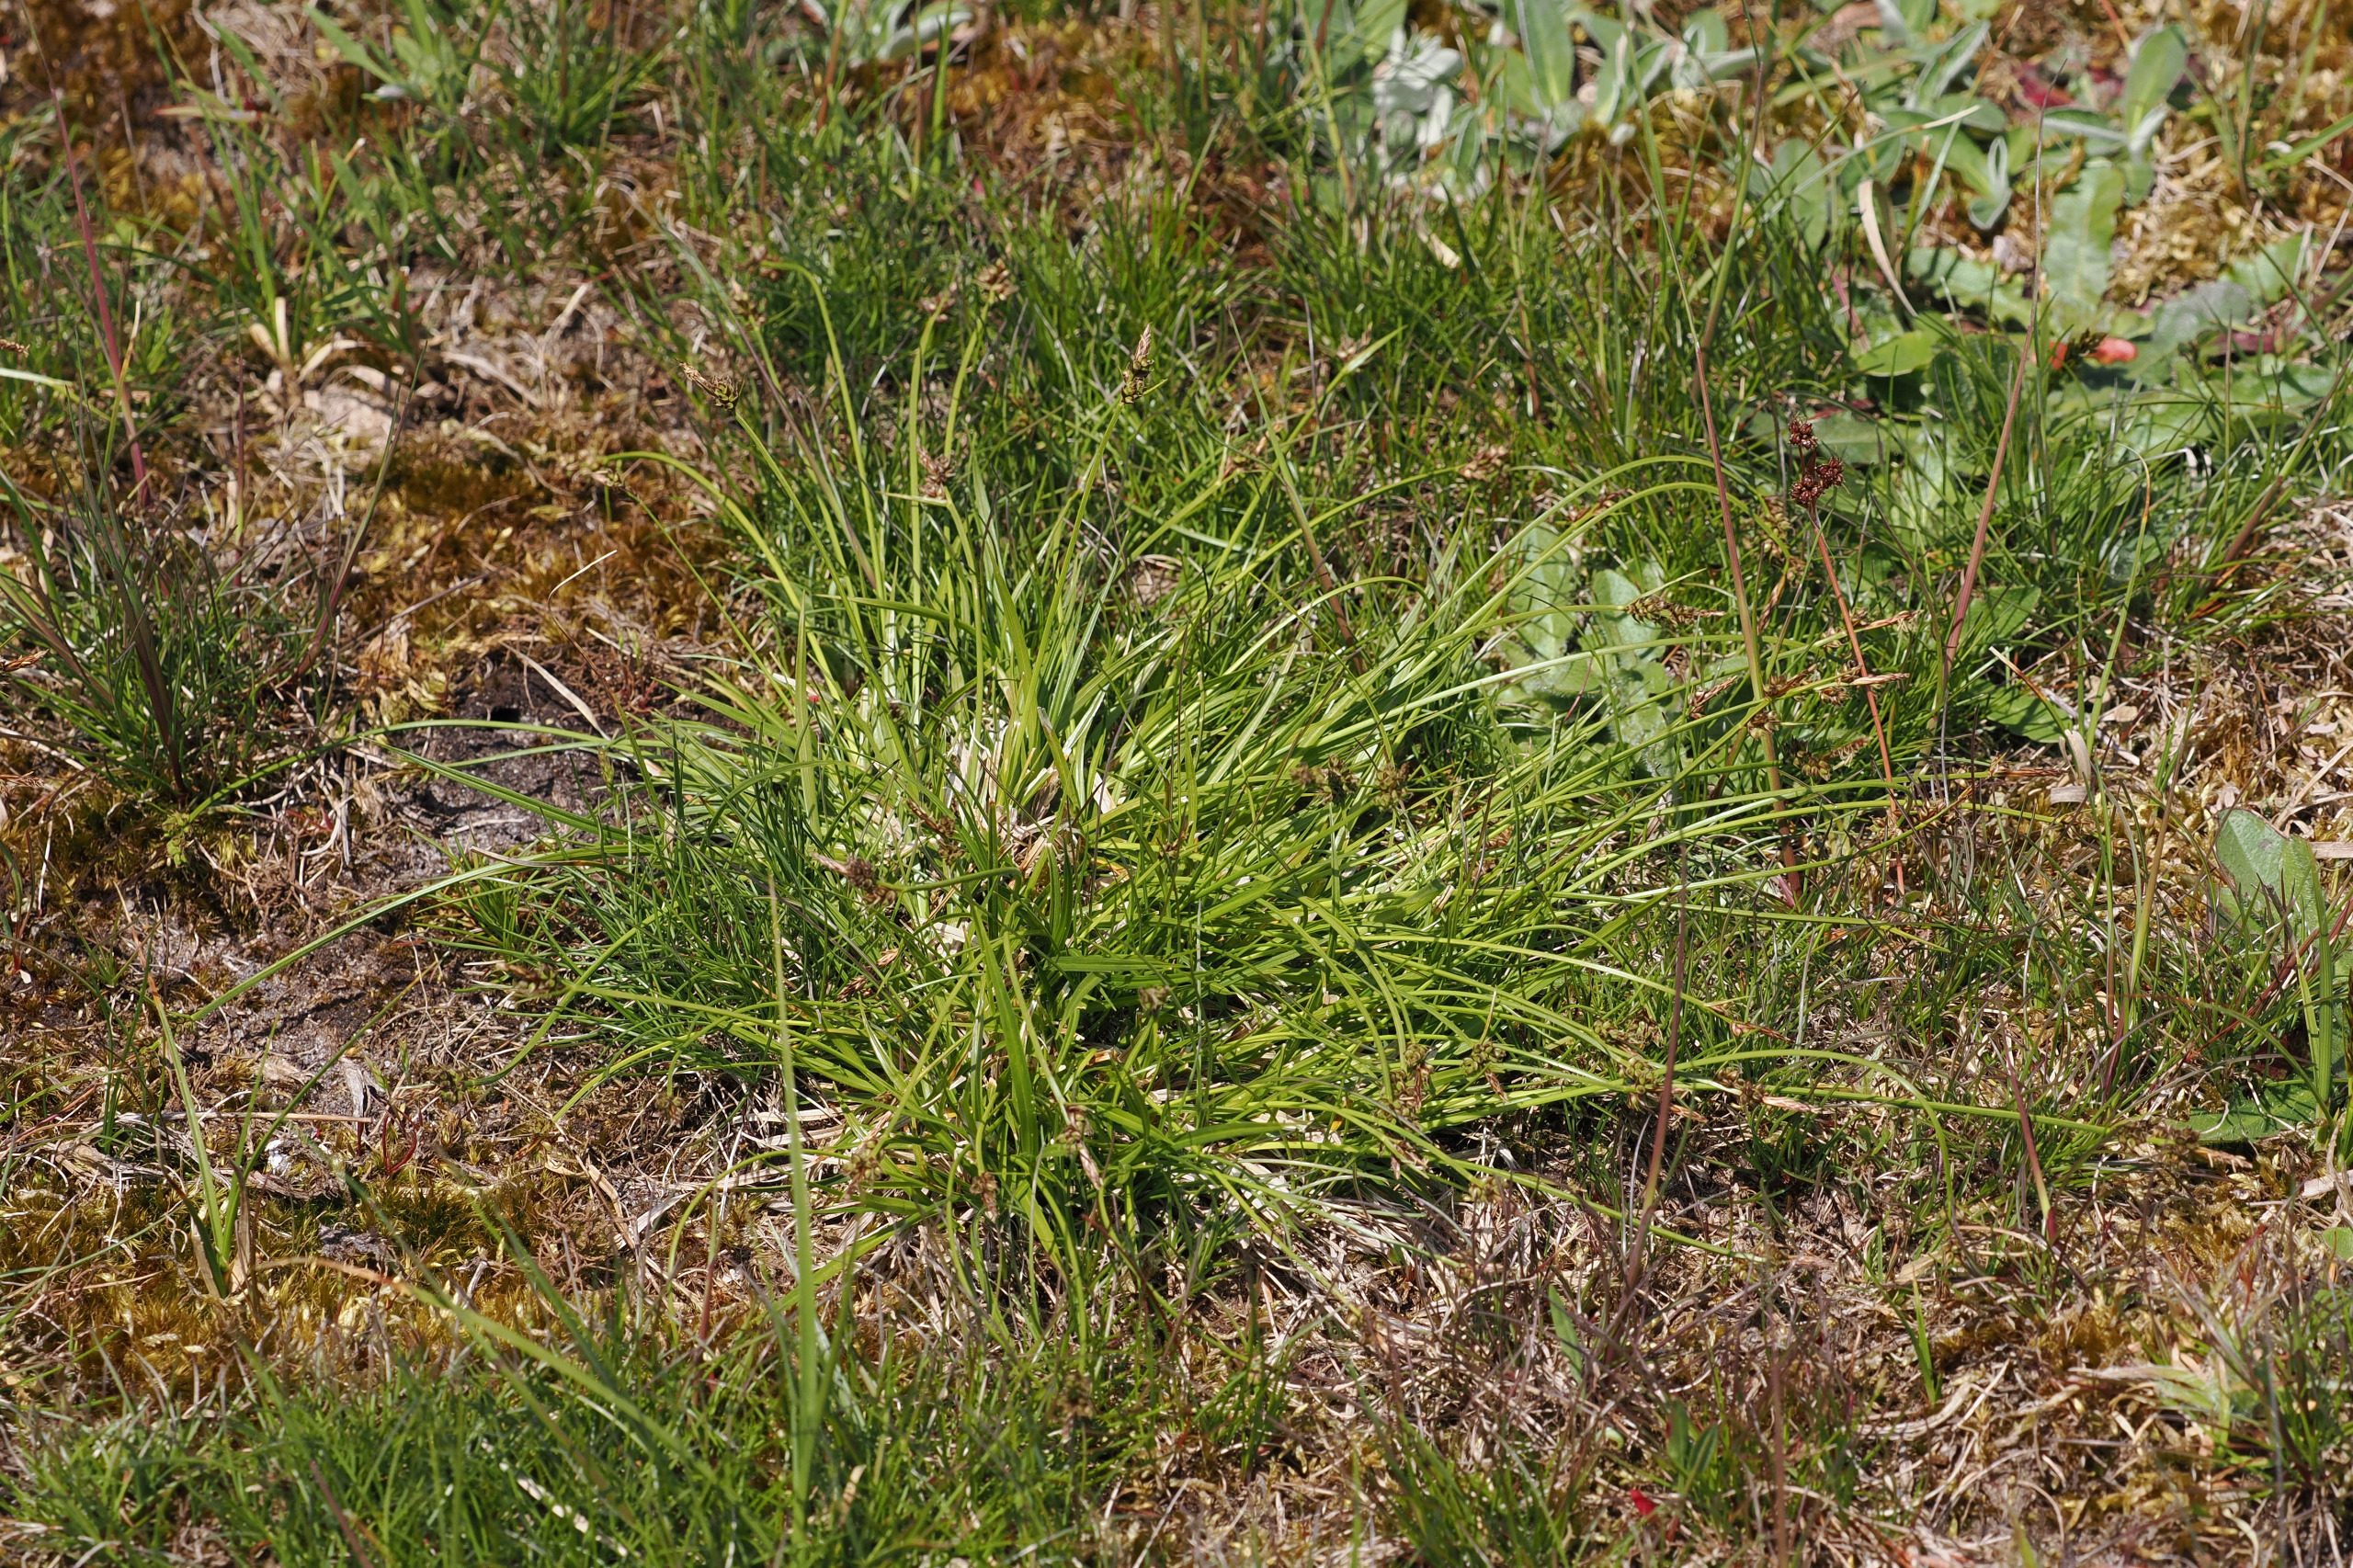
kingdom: Plantae
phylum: Tracheophyta
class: Liliopsida
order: Poales
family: Cyperaceae
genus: Carex
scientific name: Carex pilulifera
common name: Pille-star
